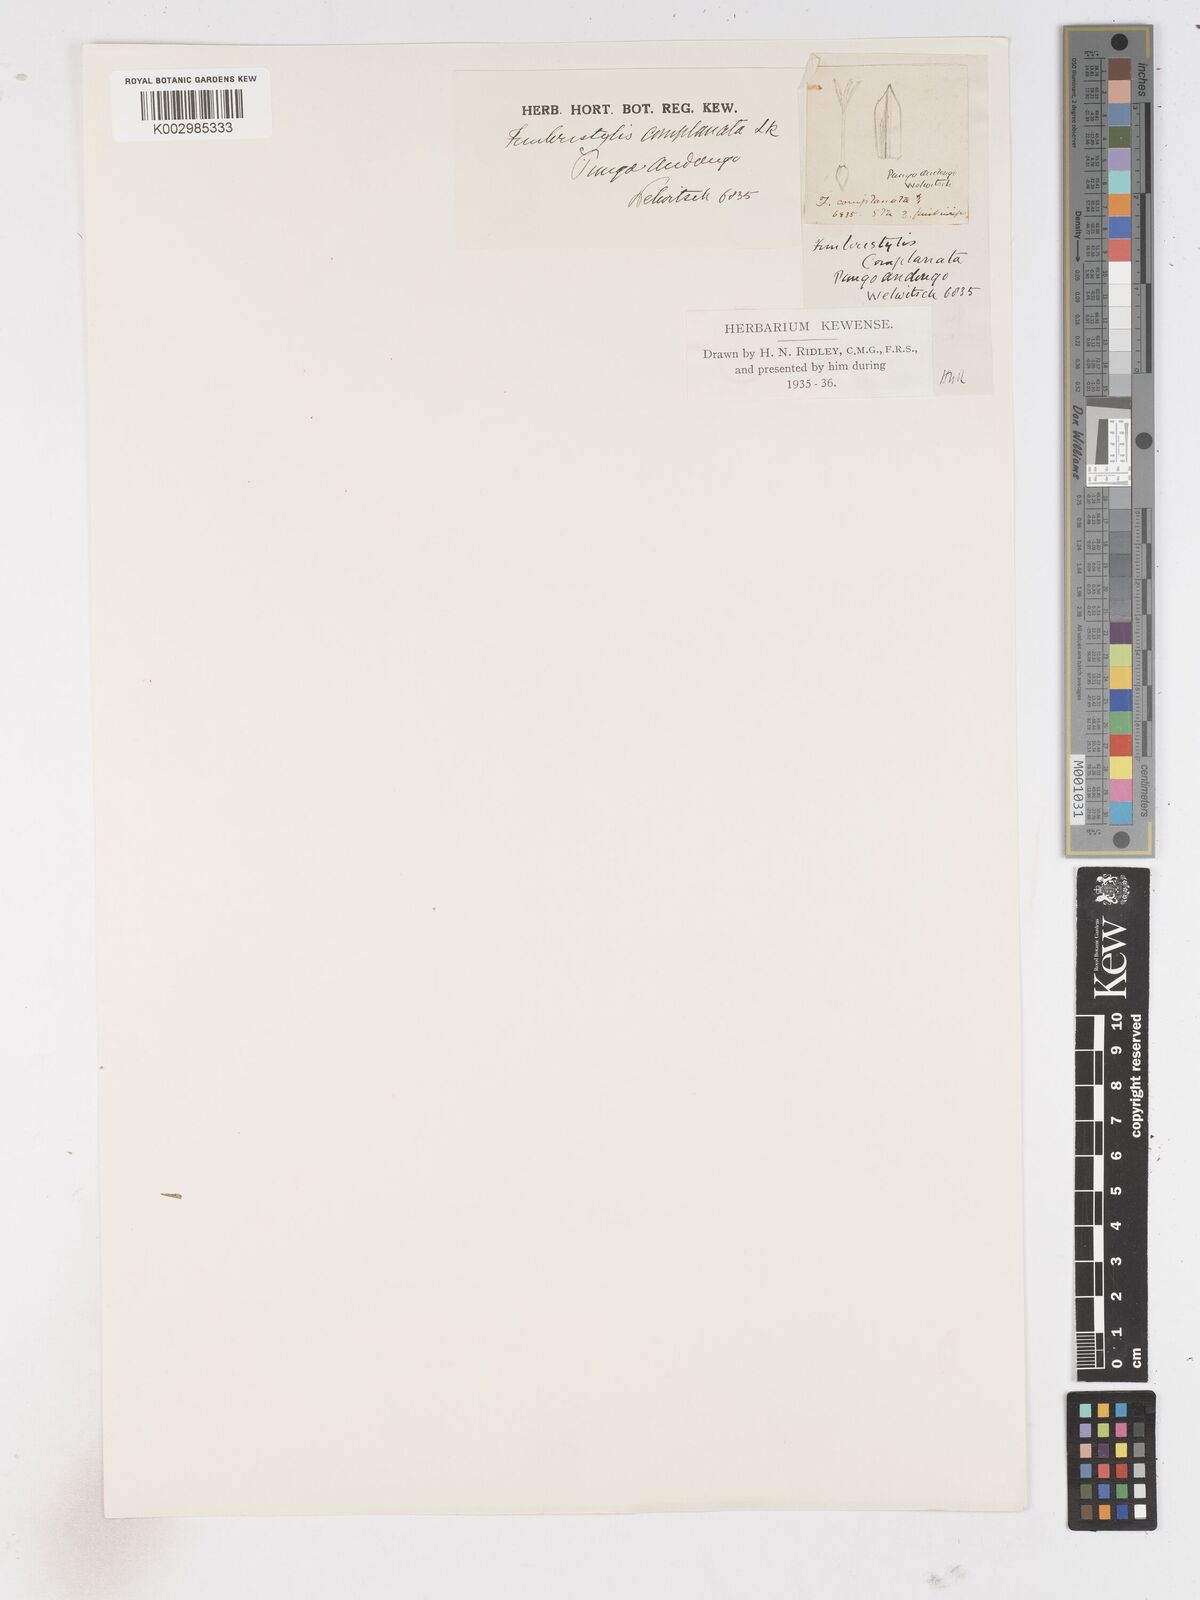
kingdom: Plantae
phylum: Tracheophyta
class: Liliopsida
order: Poales
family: Cyperaceae
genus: Fimbristylis
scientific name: Fimbristylis complanata
